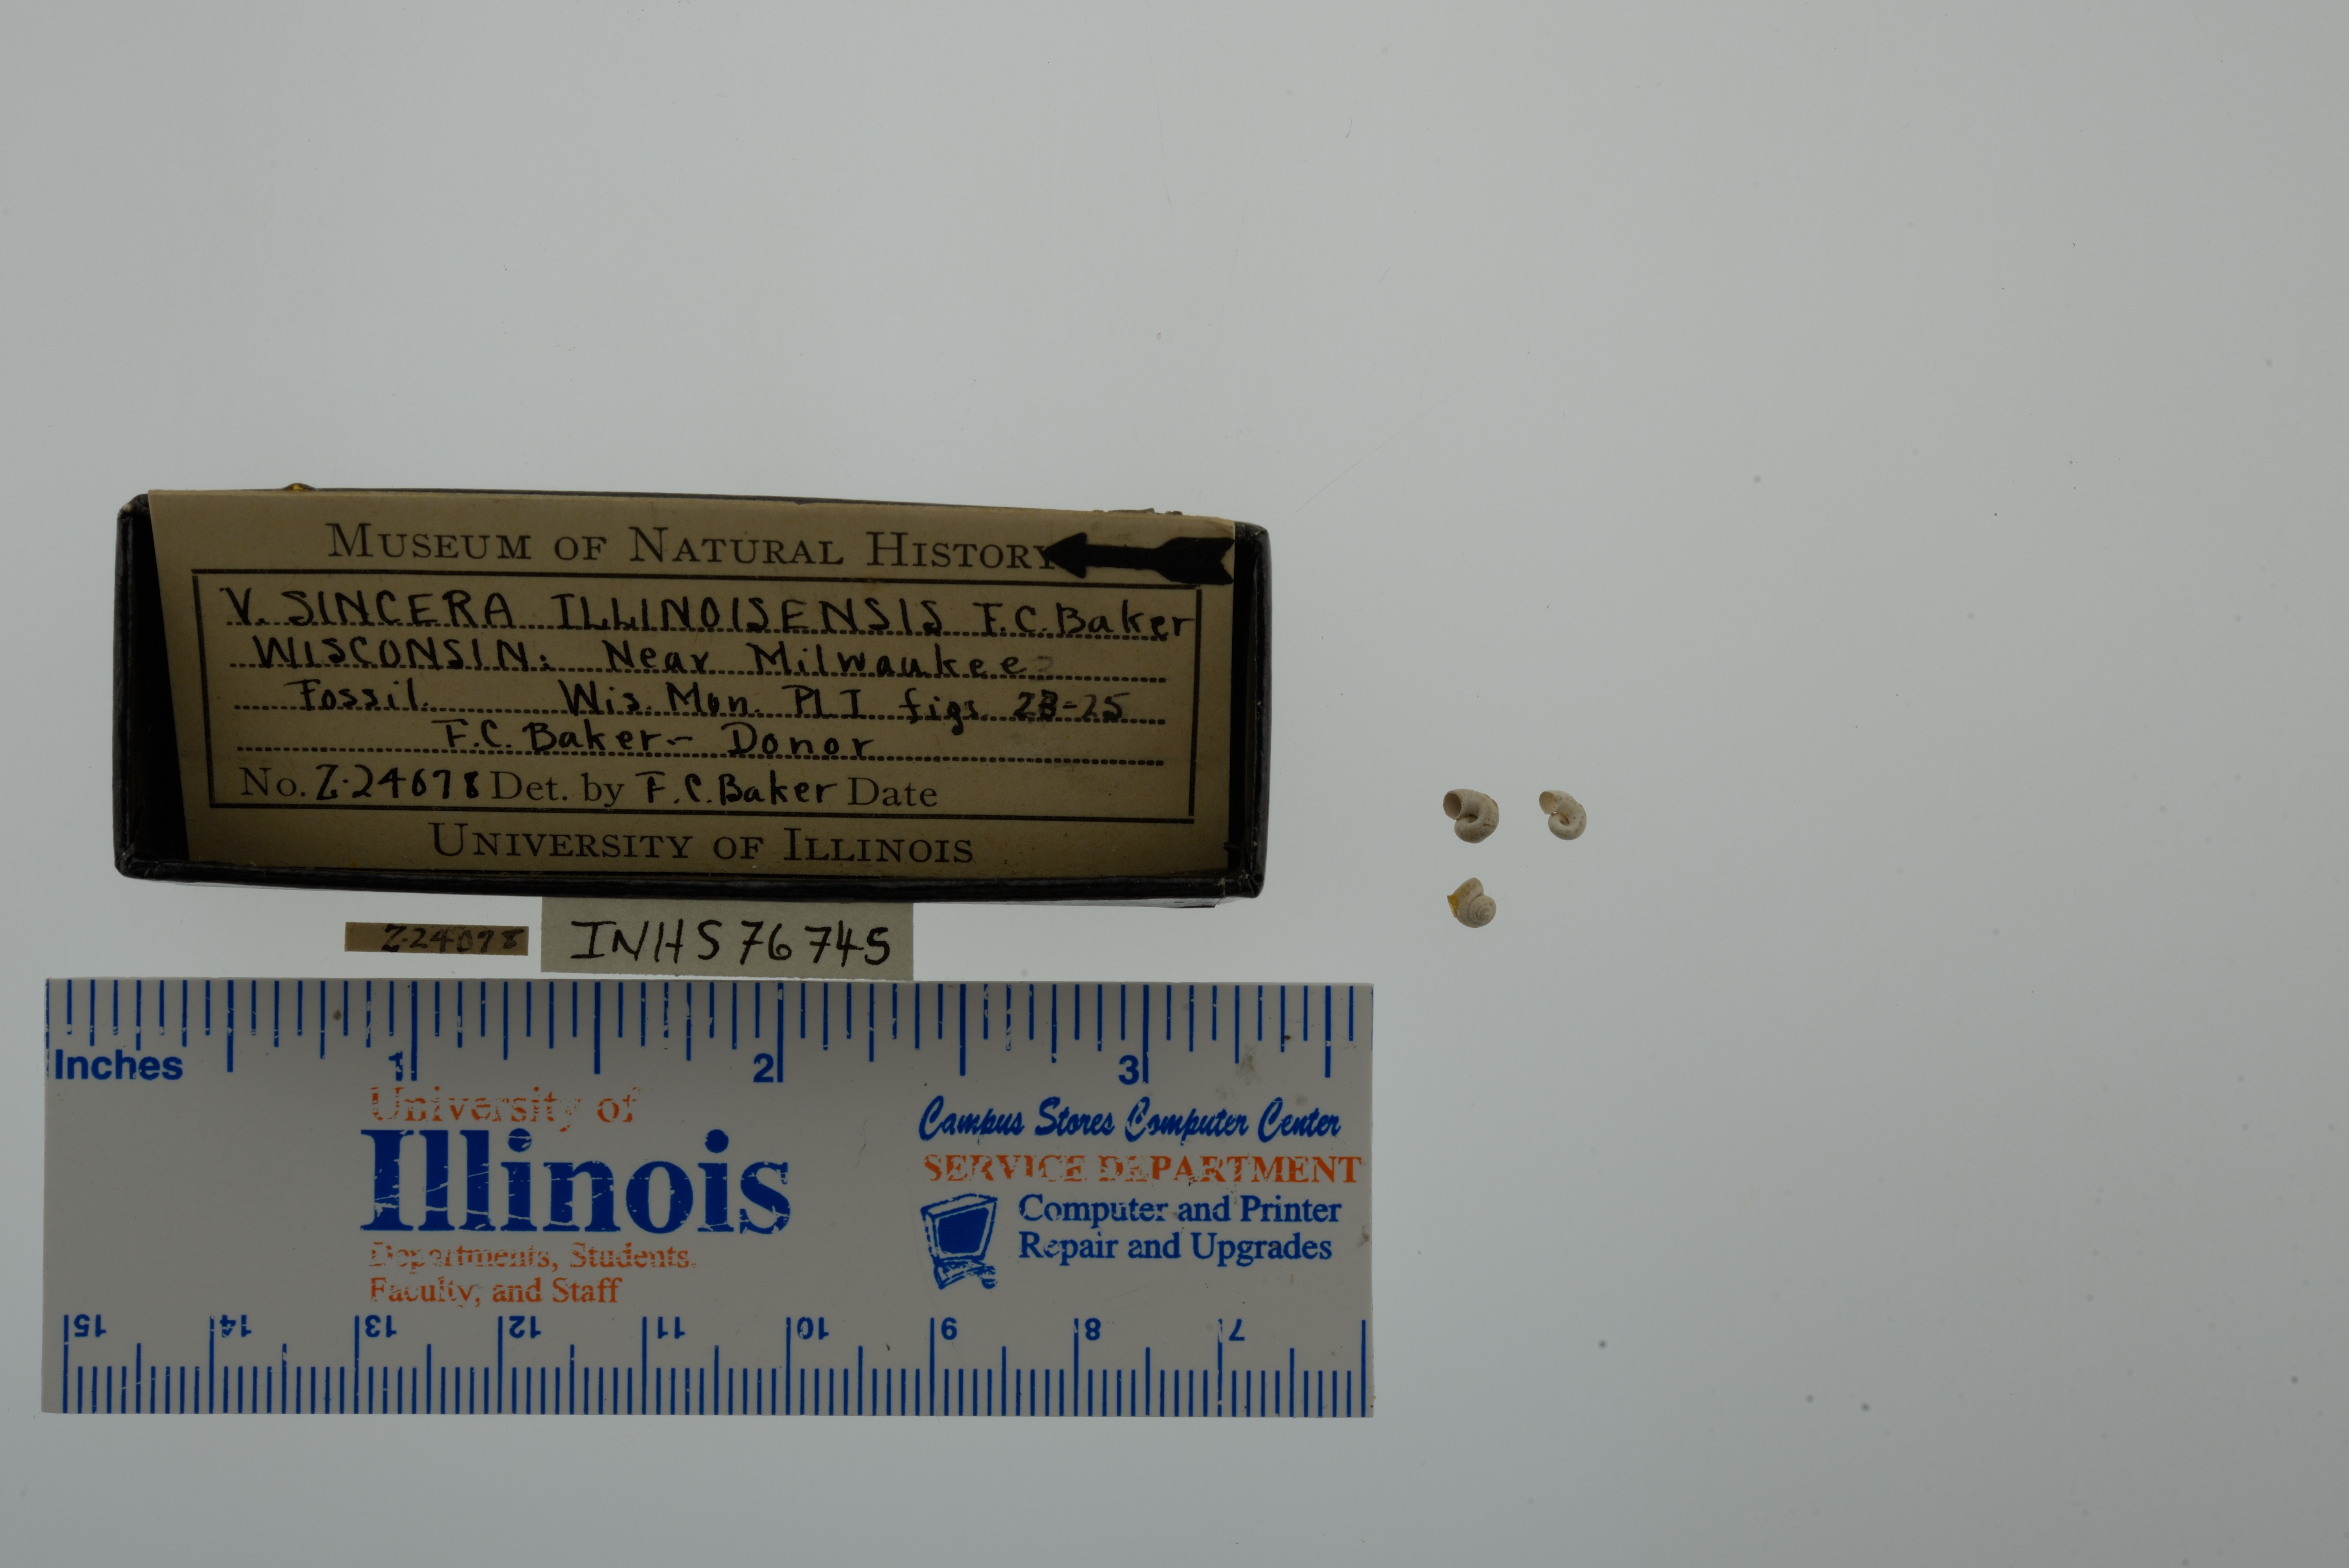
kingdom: Animalia
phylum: Mollusca
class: Gastropoda
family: Valvatidae
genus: Valvata
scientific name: Valvata sincera
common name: Mossy valvata
